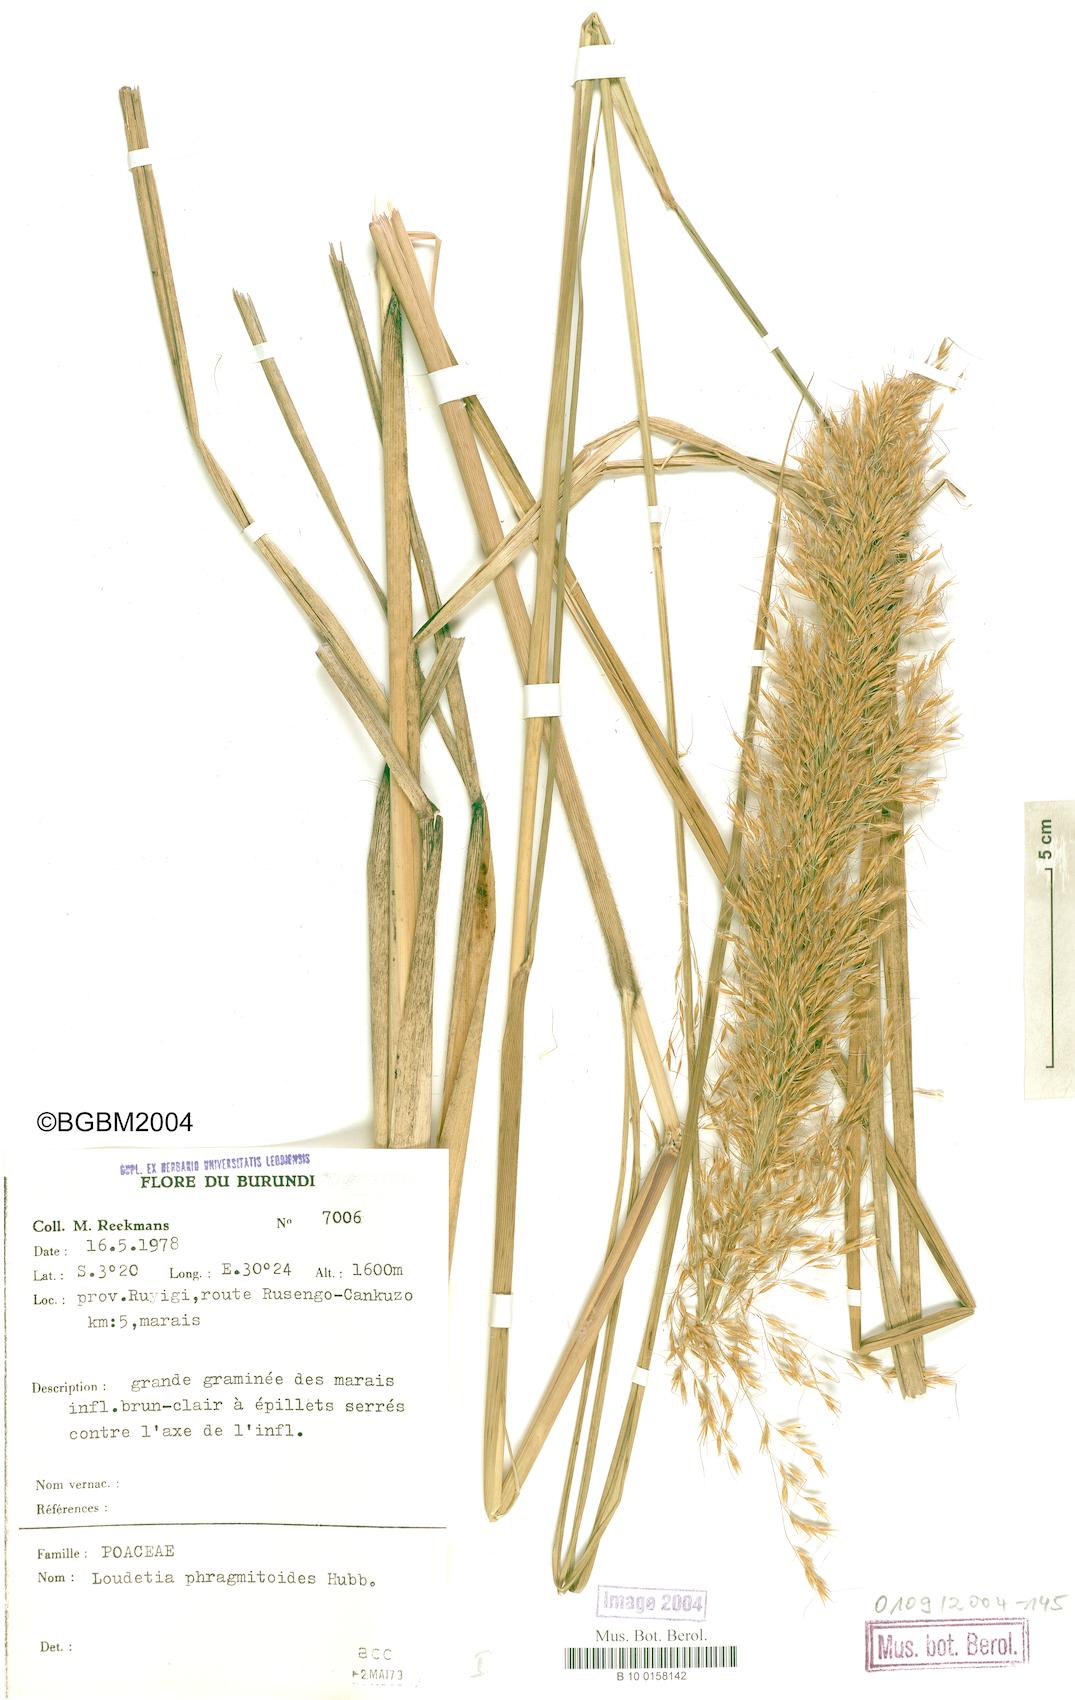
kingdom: Plantae
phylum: Tracheophyta
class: Liliopsida
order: Poales
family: Poaceae
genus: Loudetia
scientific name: Loudetia phragmitoides
